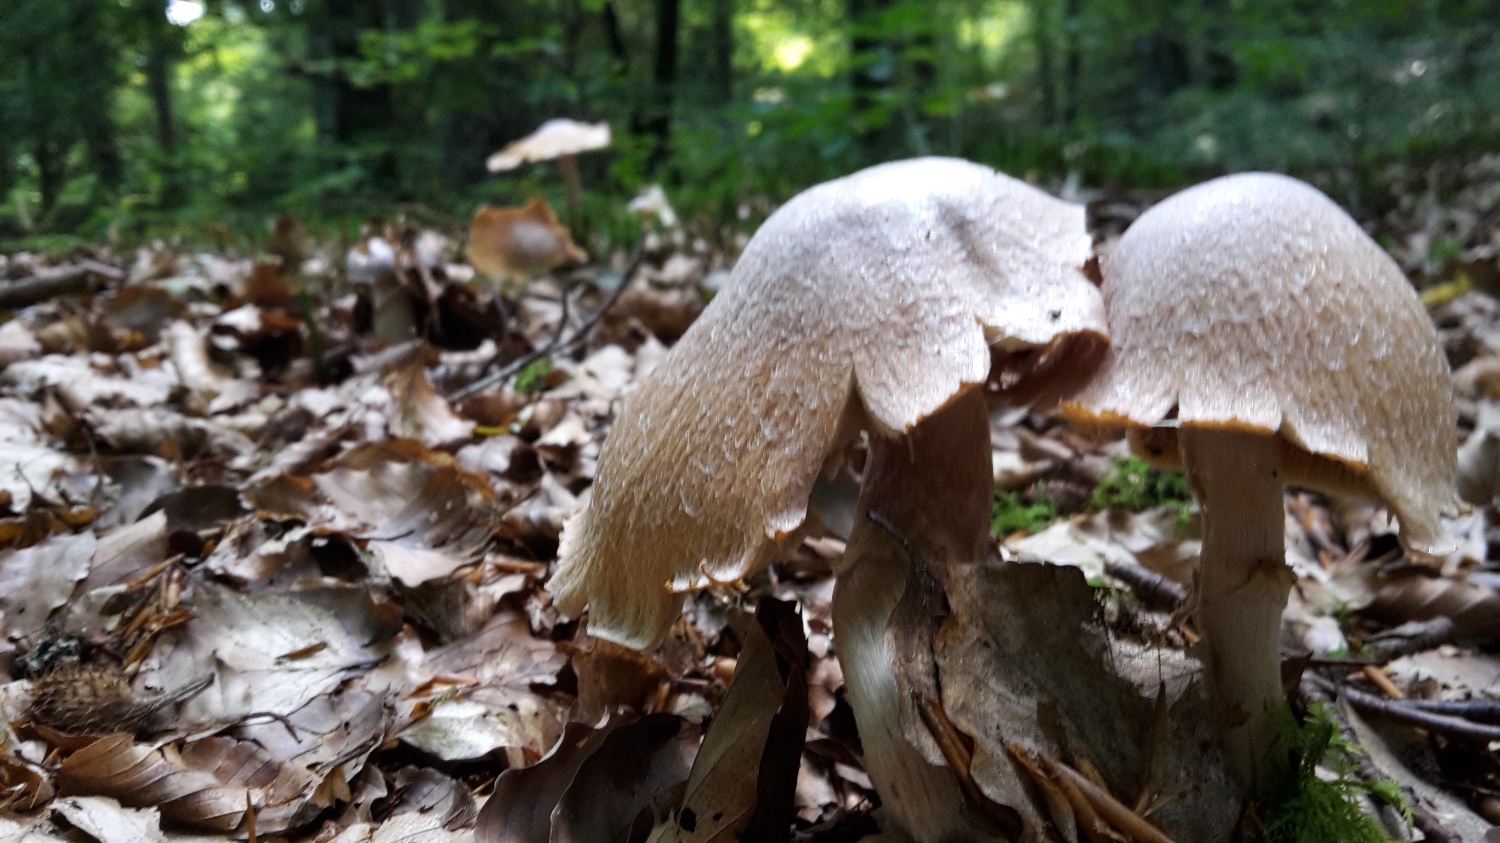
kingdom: Fungi
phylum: Basidiomycota
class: Agaricomycetes
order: Agaricales
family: Cortinariaceae
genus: Cortinarius
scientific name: Cortinarius caperatus
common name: klidhat
